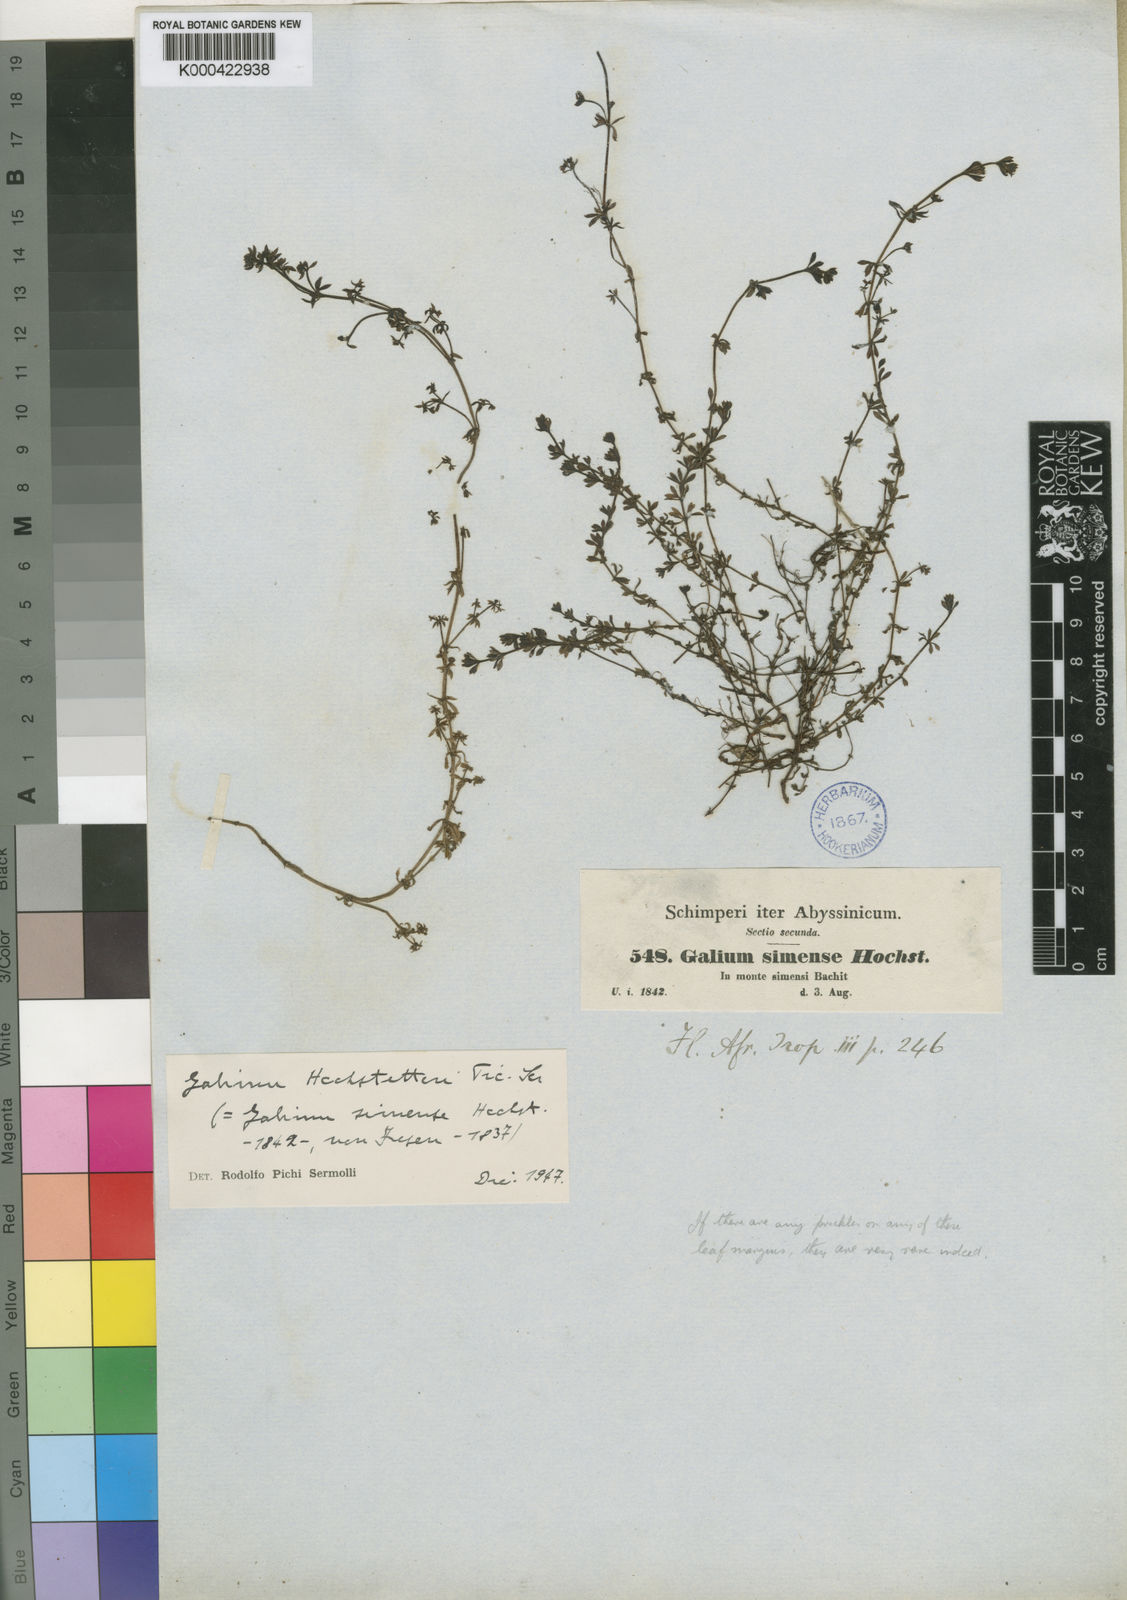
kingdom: Plantae
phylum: Tracheophyta
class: Magnoliopsida
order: Gentianales
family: Rubiaceae
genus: Galium
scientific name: Galium acrophyum
